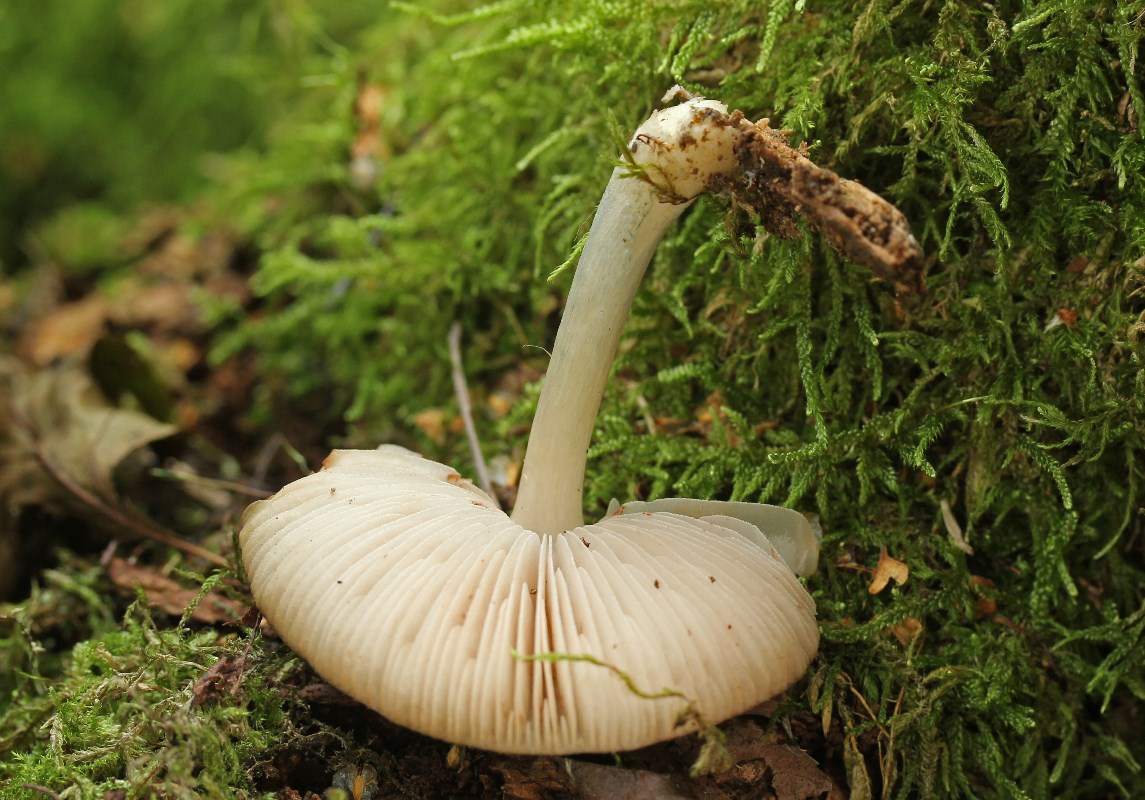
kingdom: Fungi
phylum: Basidiomycota
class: Agaricomycetes
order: Agaricales
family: Pluteaceae
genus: Pluteus
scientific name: Pluteus salicinus
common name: stiv skærmhat
